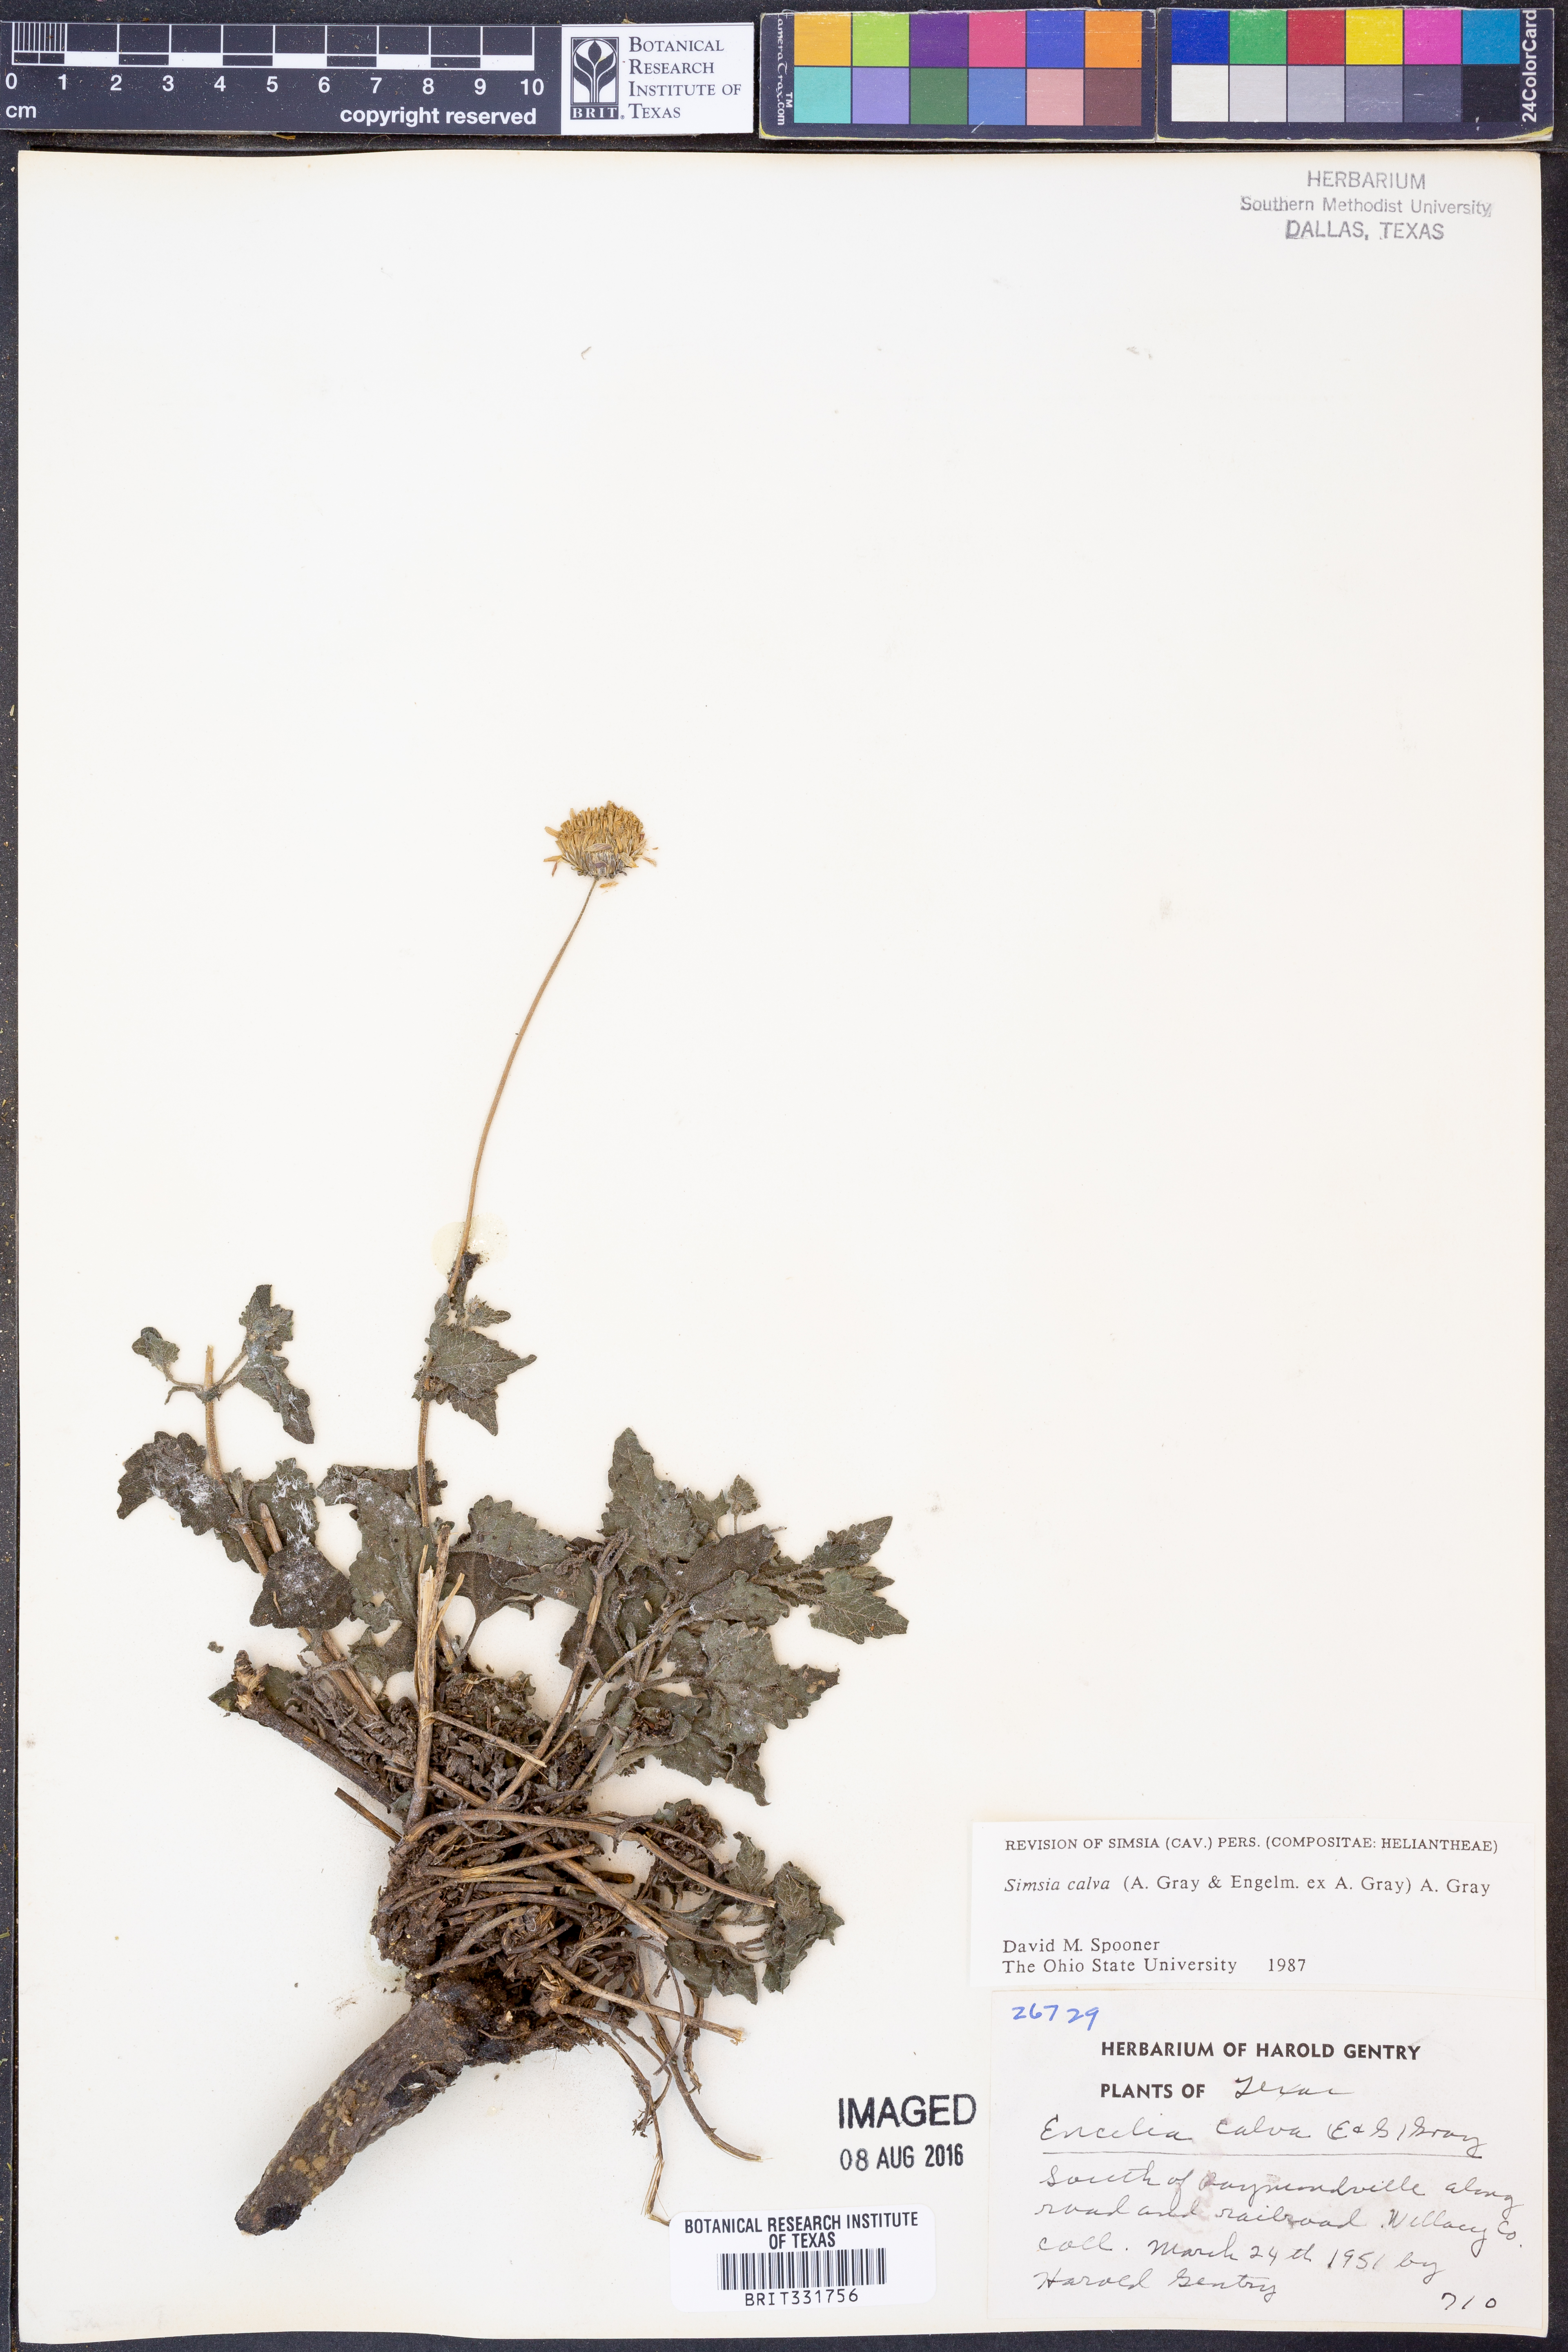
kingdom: Plantae
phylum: Tracheophyta
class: Magnoliopsida
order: Asterales
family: Asteraceae
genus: Simsia
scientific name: Simsia calva
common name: Awnless bush-sunflower
